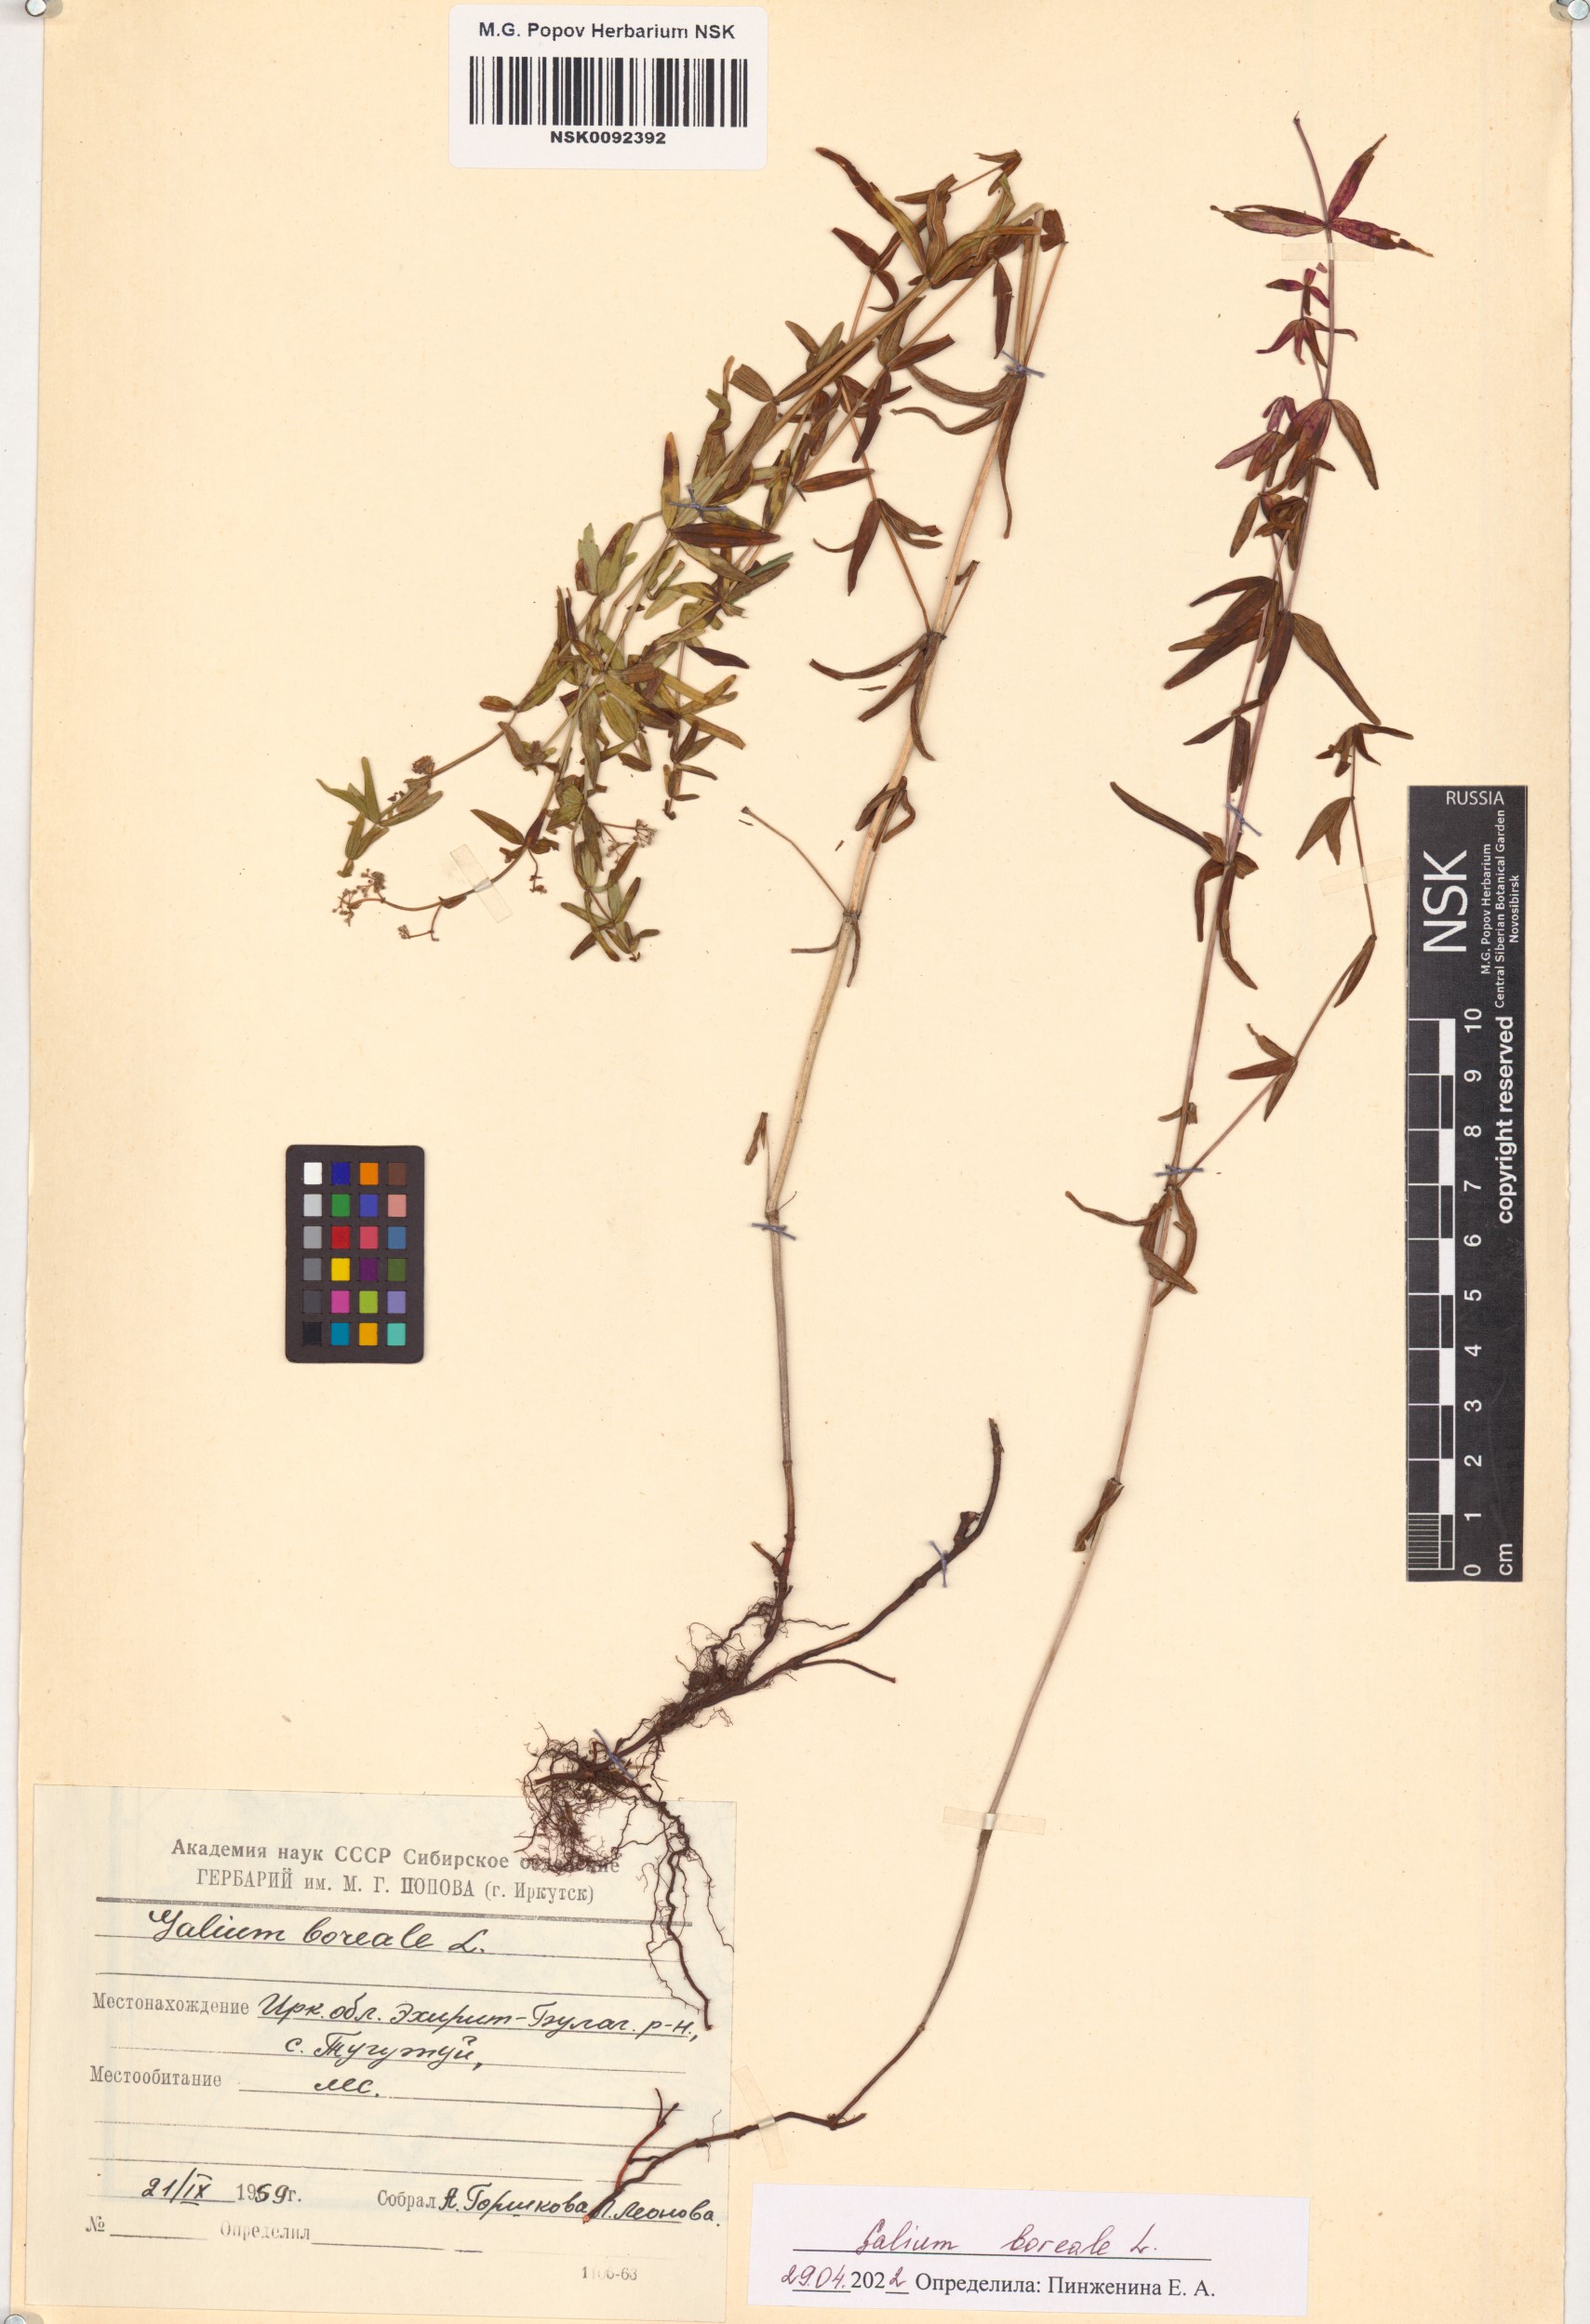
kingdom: Plantae
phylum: Tracheophyta
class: Magnoliopsida
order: Gentianales
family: Rubiaceae
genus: Galium
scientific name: Galium boreale
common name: Northern bedstraw
